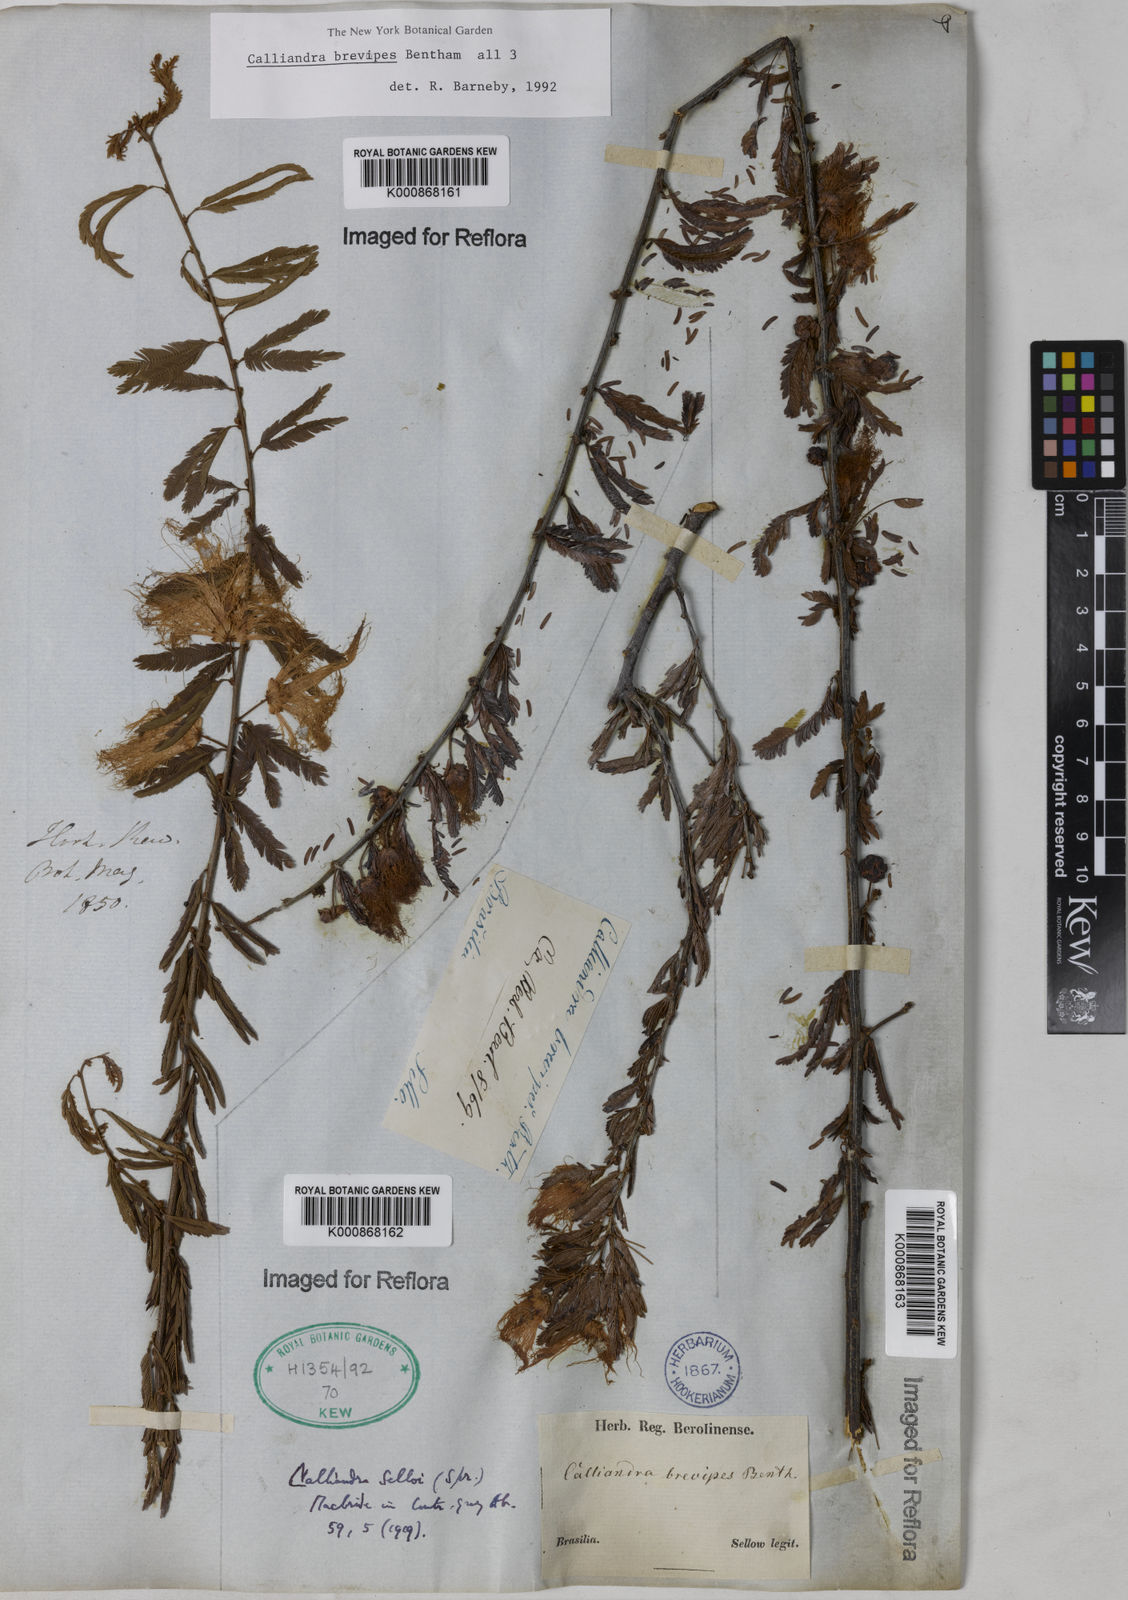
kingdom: Plantae
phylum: Tracheophyta
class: Magnoliopsida
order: Fabales
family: Fabaceae
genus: Calliandra
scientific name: Calliandra selloi
